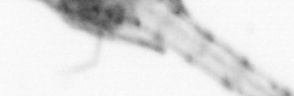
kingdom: Animalia
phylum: Arthropoda
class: Copepoda
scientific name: Copepoda
